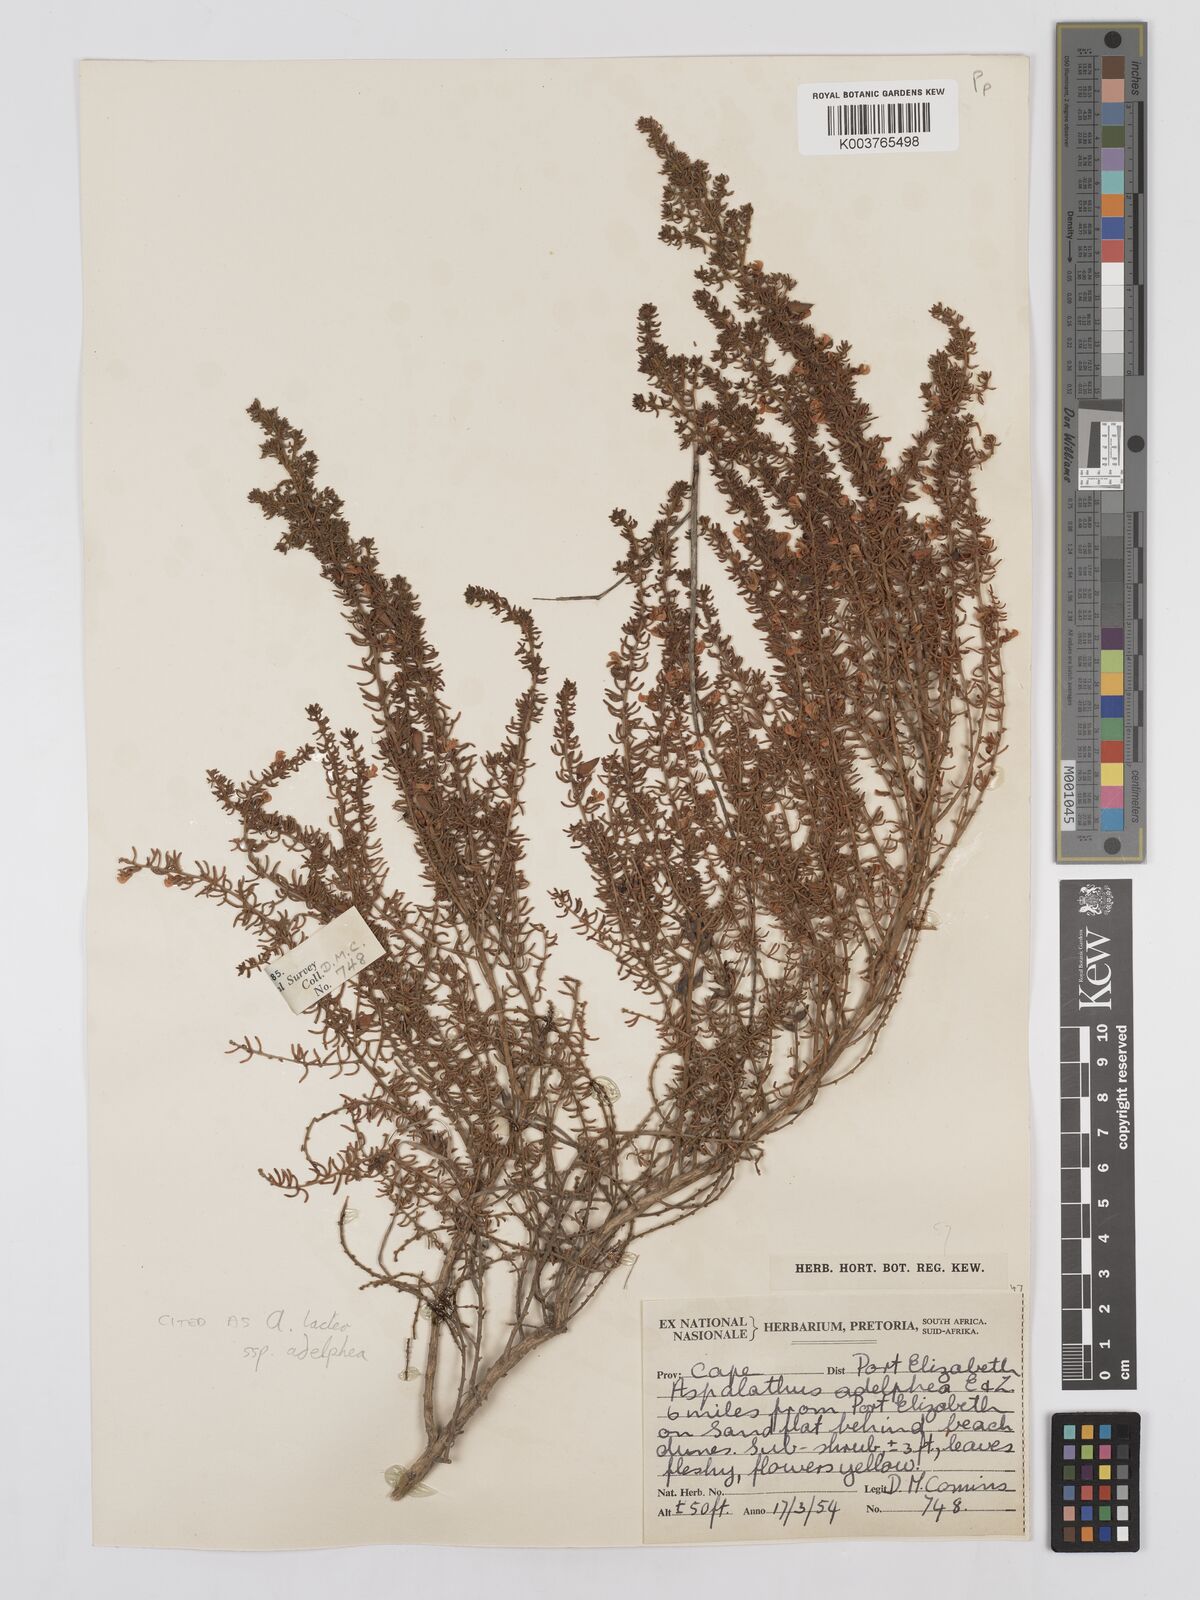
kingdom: Plantae
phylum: Tracheophyta
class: Magnoliopsida
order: Fabales
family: Fabaceae
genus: Aspalathus
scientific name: Aspalathus lactea
